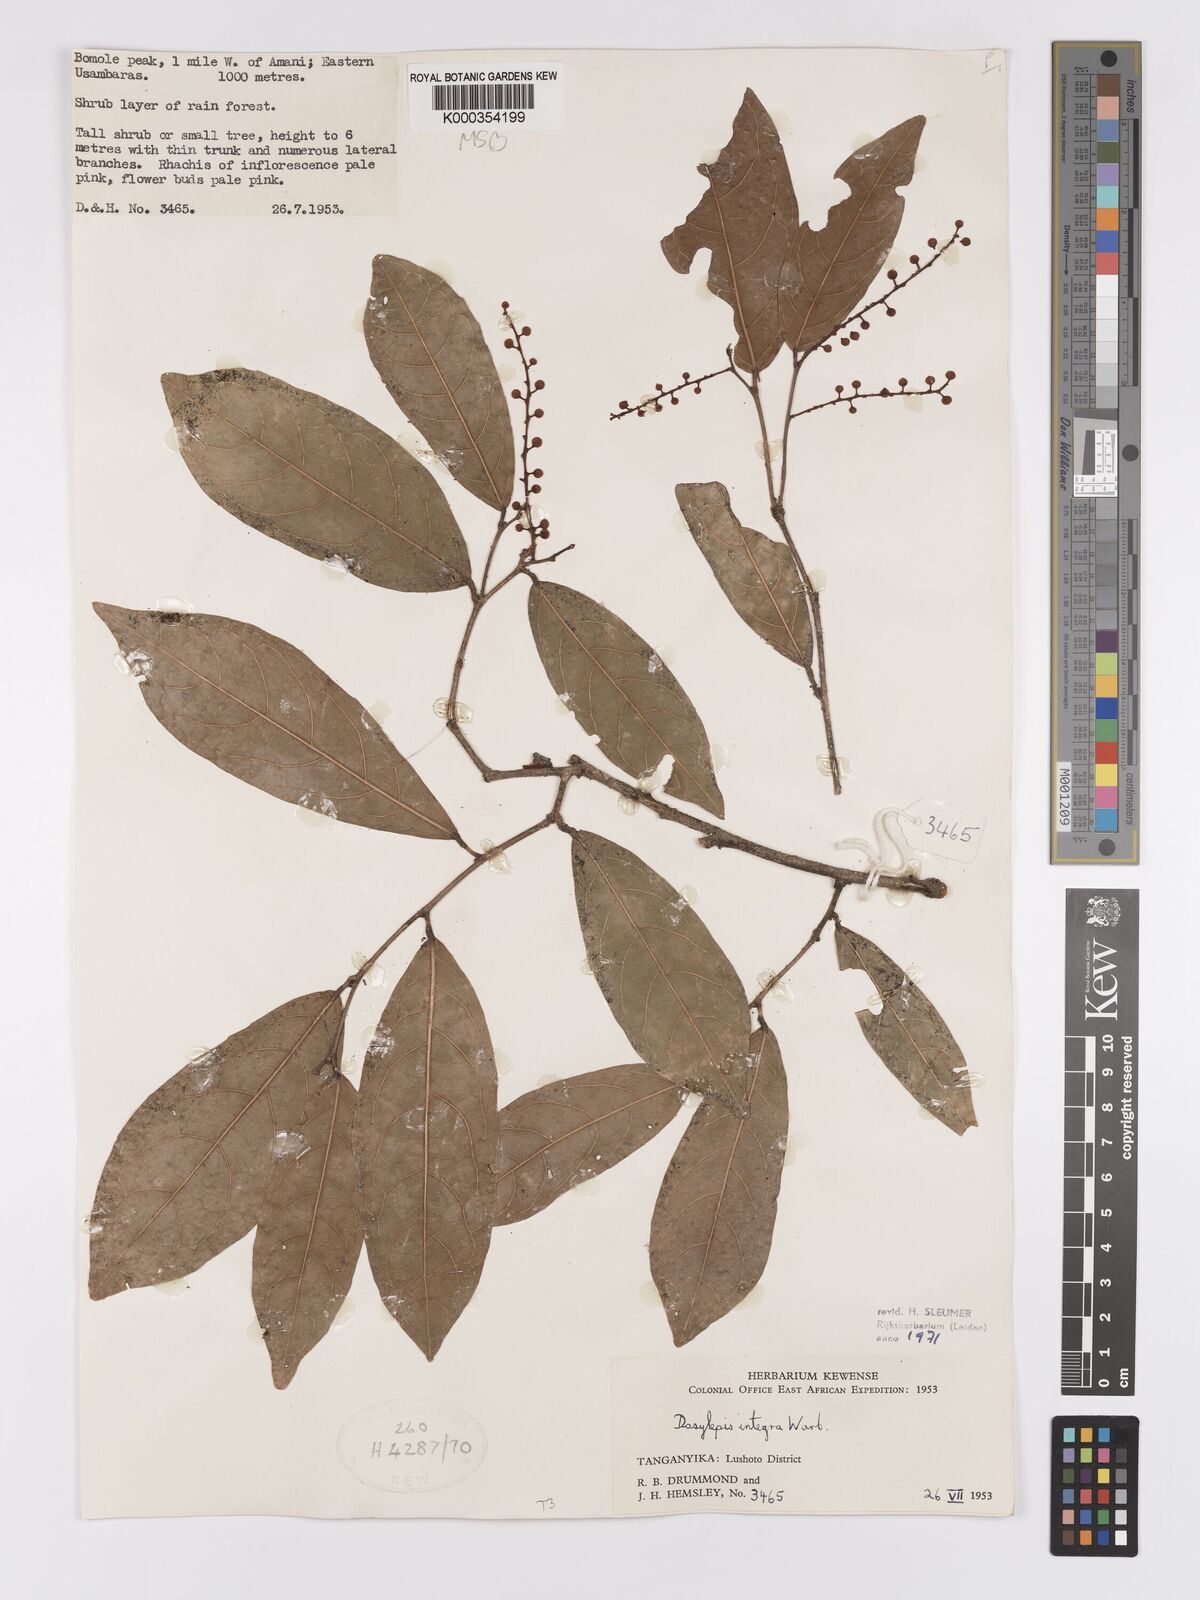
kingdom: Plantae
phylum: Tracheophyta
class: Magnoliopsida
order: Malpighiales
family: Achariaceae
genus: Dasylepis
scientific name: Dasylepis integra
